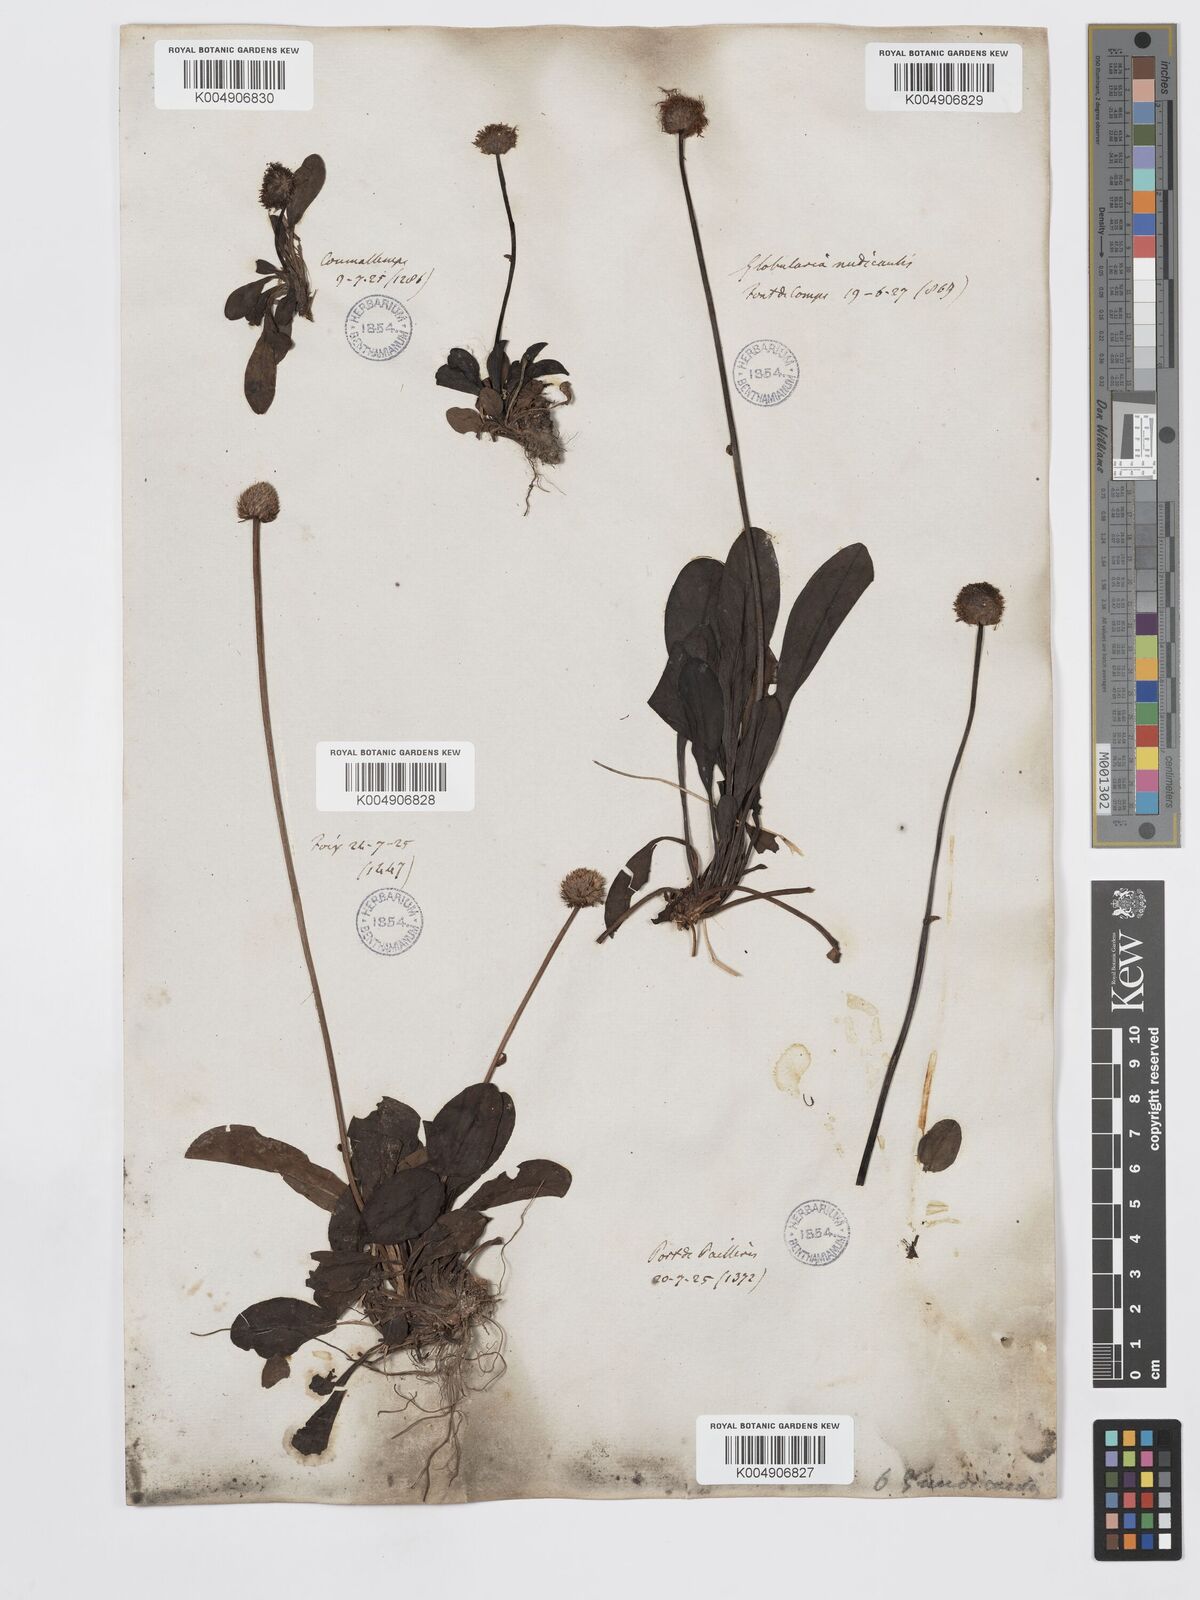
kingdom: Plantae
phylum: Tracheophyta
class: Magnoliopsida
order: Lamiales
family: Plantaginaceae
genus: Globularia
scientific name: Globularia nudicaulis
